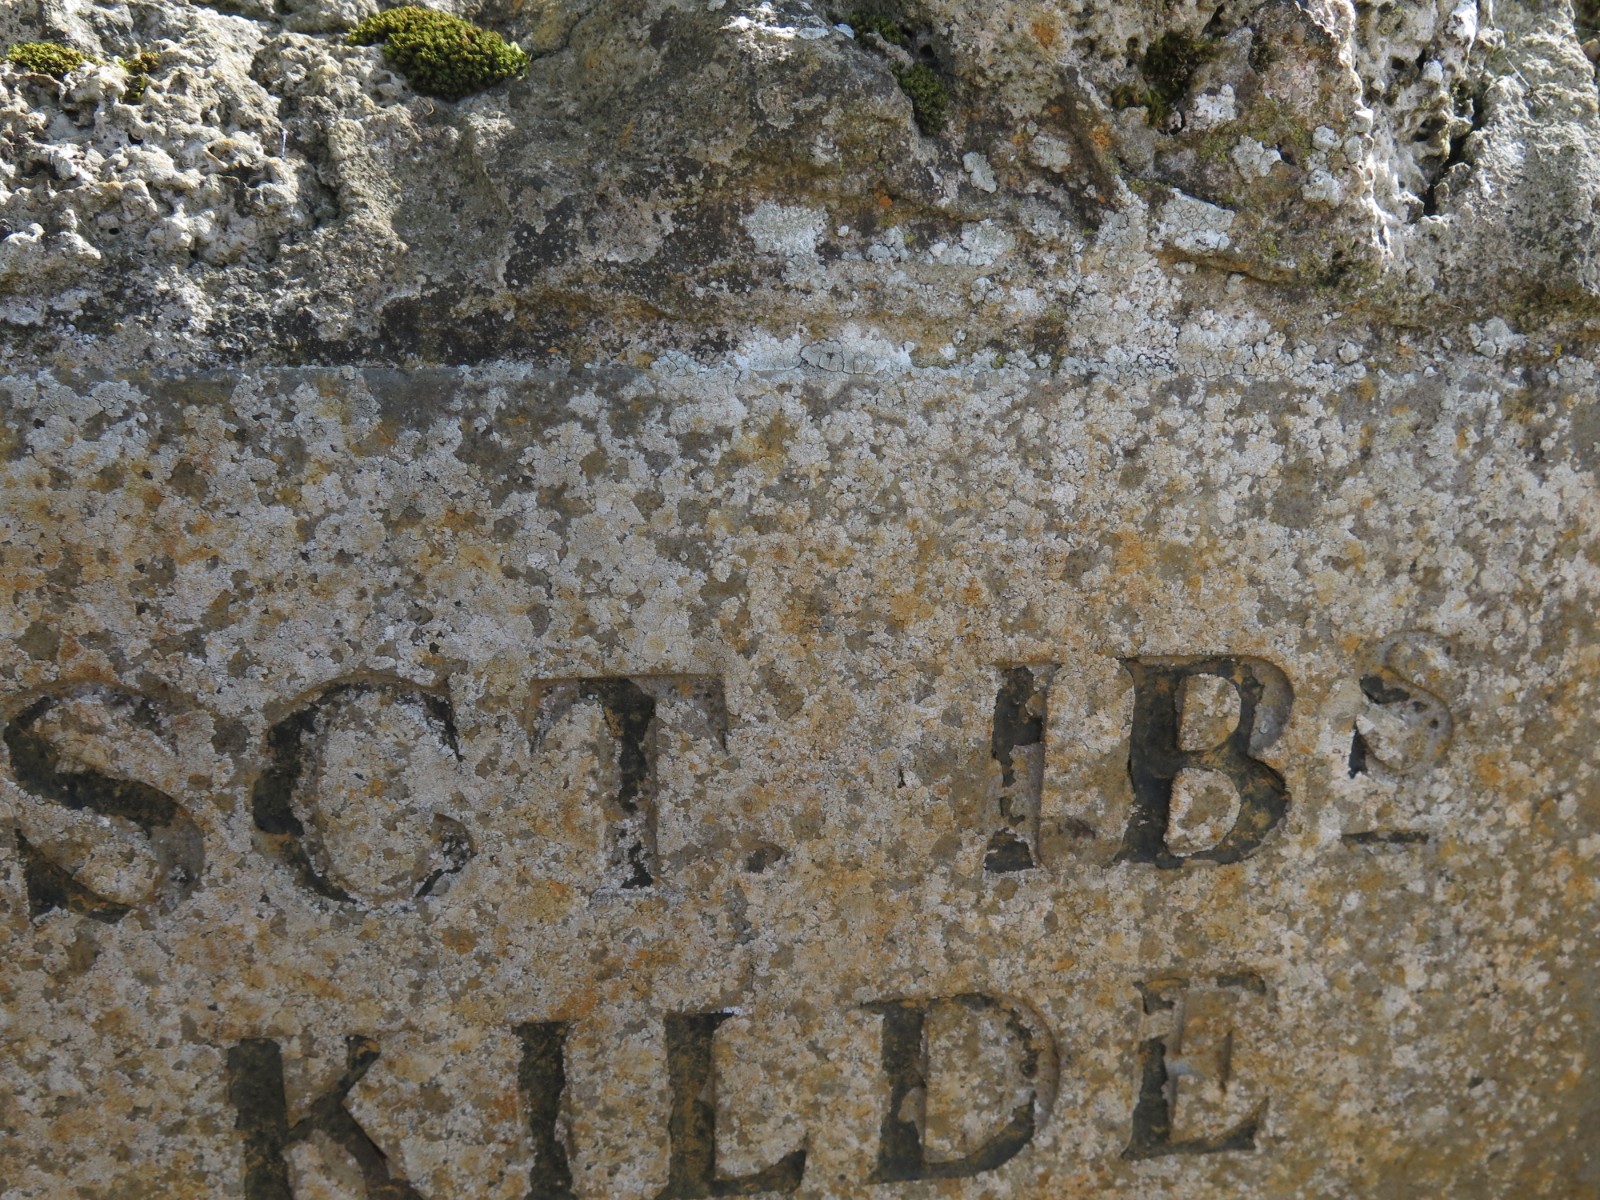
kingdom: Fungi
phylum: Ascomycota
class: Lecanoromycetes
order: Lecanorales
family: Lecanoraceae
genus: Polyozosia
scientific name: Polyozosia albescens
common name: cement-kantskivelav
